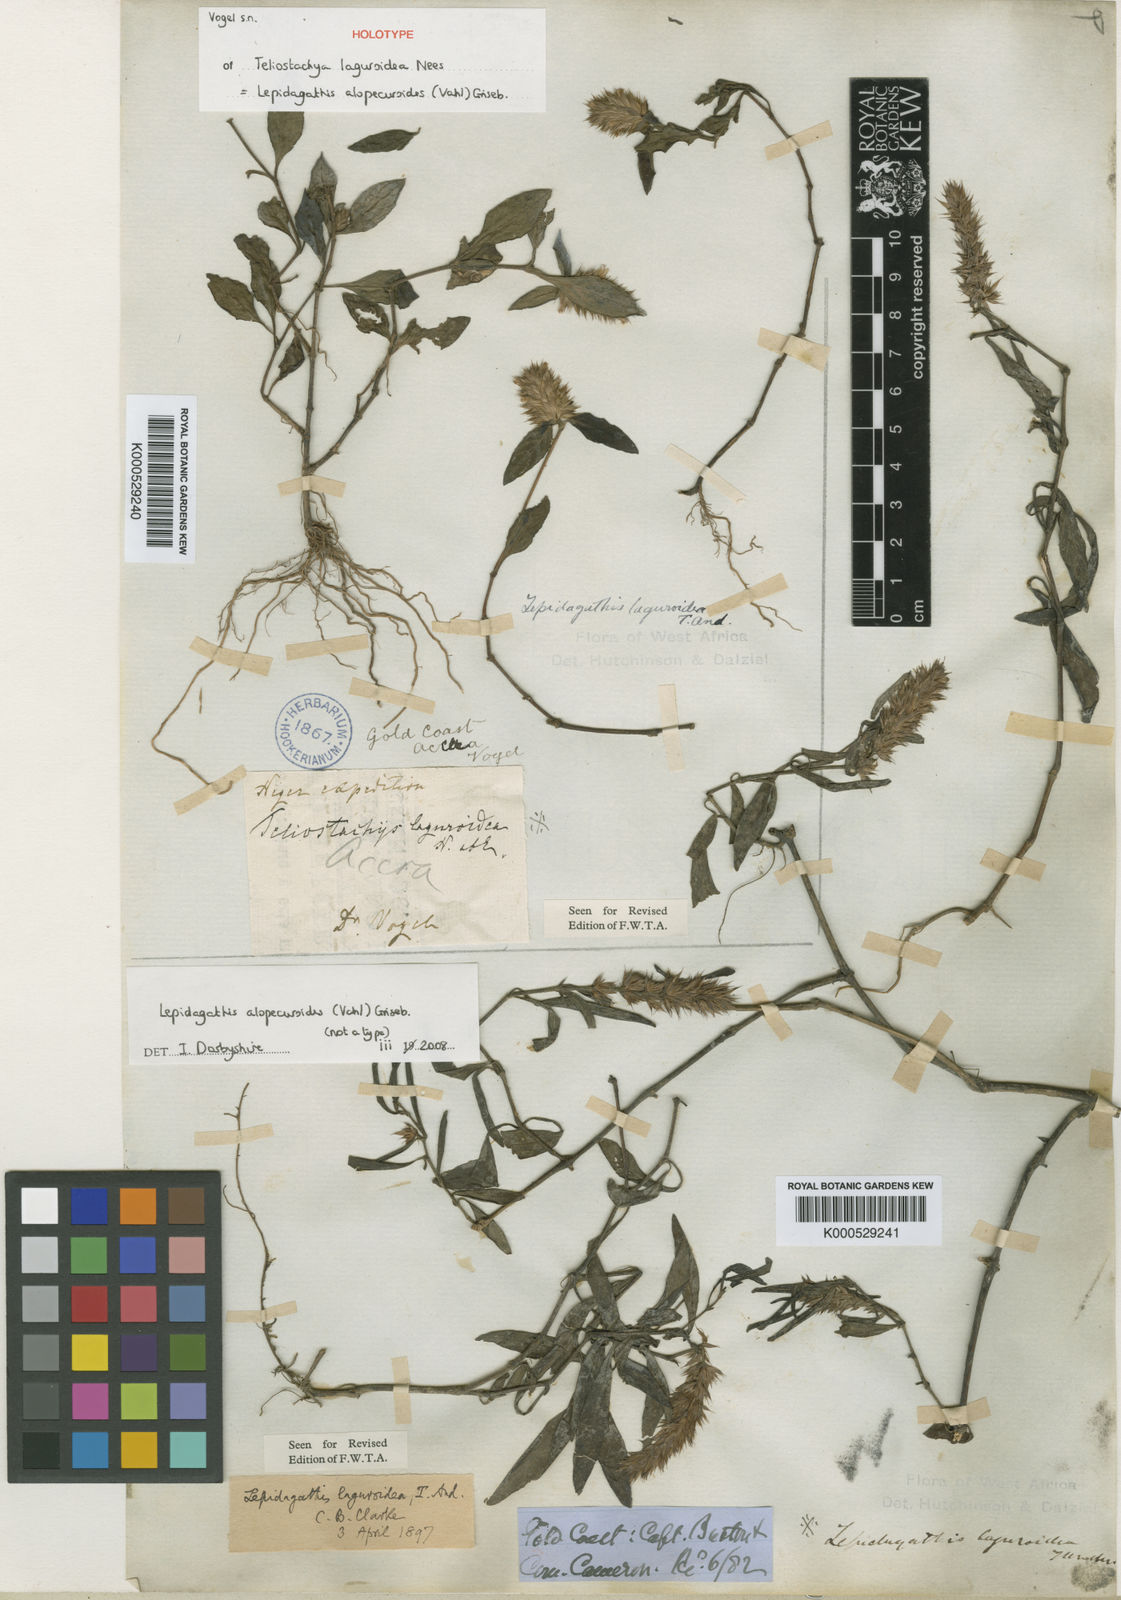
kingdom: Plantae
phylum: Tracheophyta
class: Magnoliopsida
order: Lamiales
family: Acanthaceae
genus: Lepidagathis
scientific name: Lepidagathis alopecuroidea
